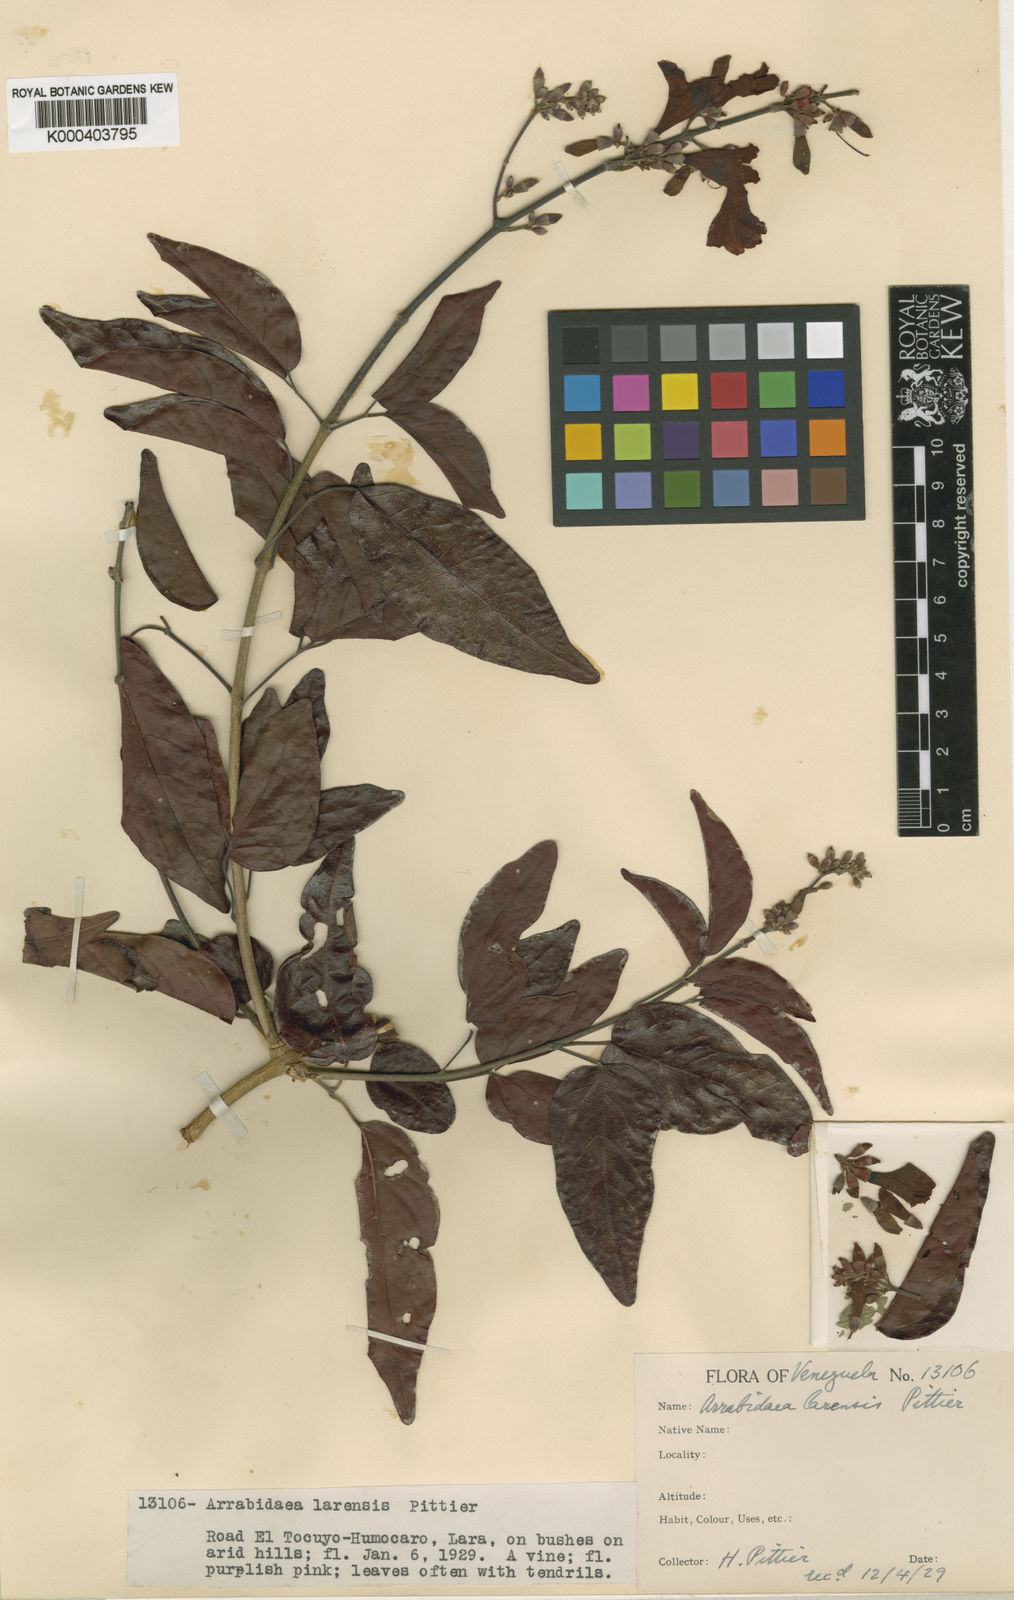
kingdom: Plantae
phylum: Tracheophyta
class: Magnoliopsida
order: Lamiales
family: Bignoniaceae
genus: Fridericia
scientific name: Fridericia chica
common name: Cricketvine
